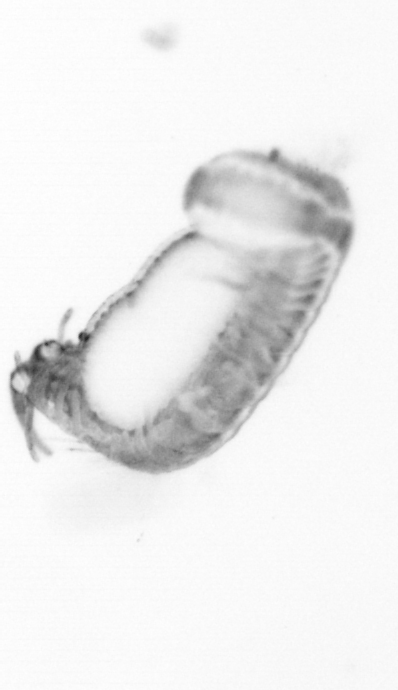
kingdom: Animalia
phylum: Annelida
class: Polychaeta
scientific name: Polychaeta
